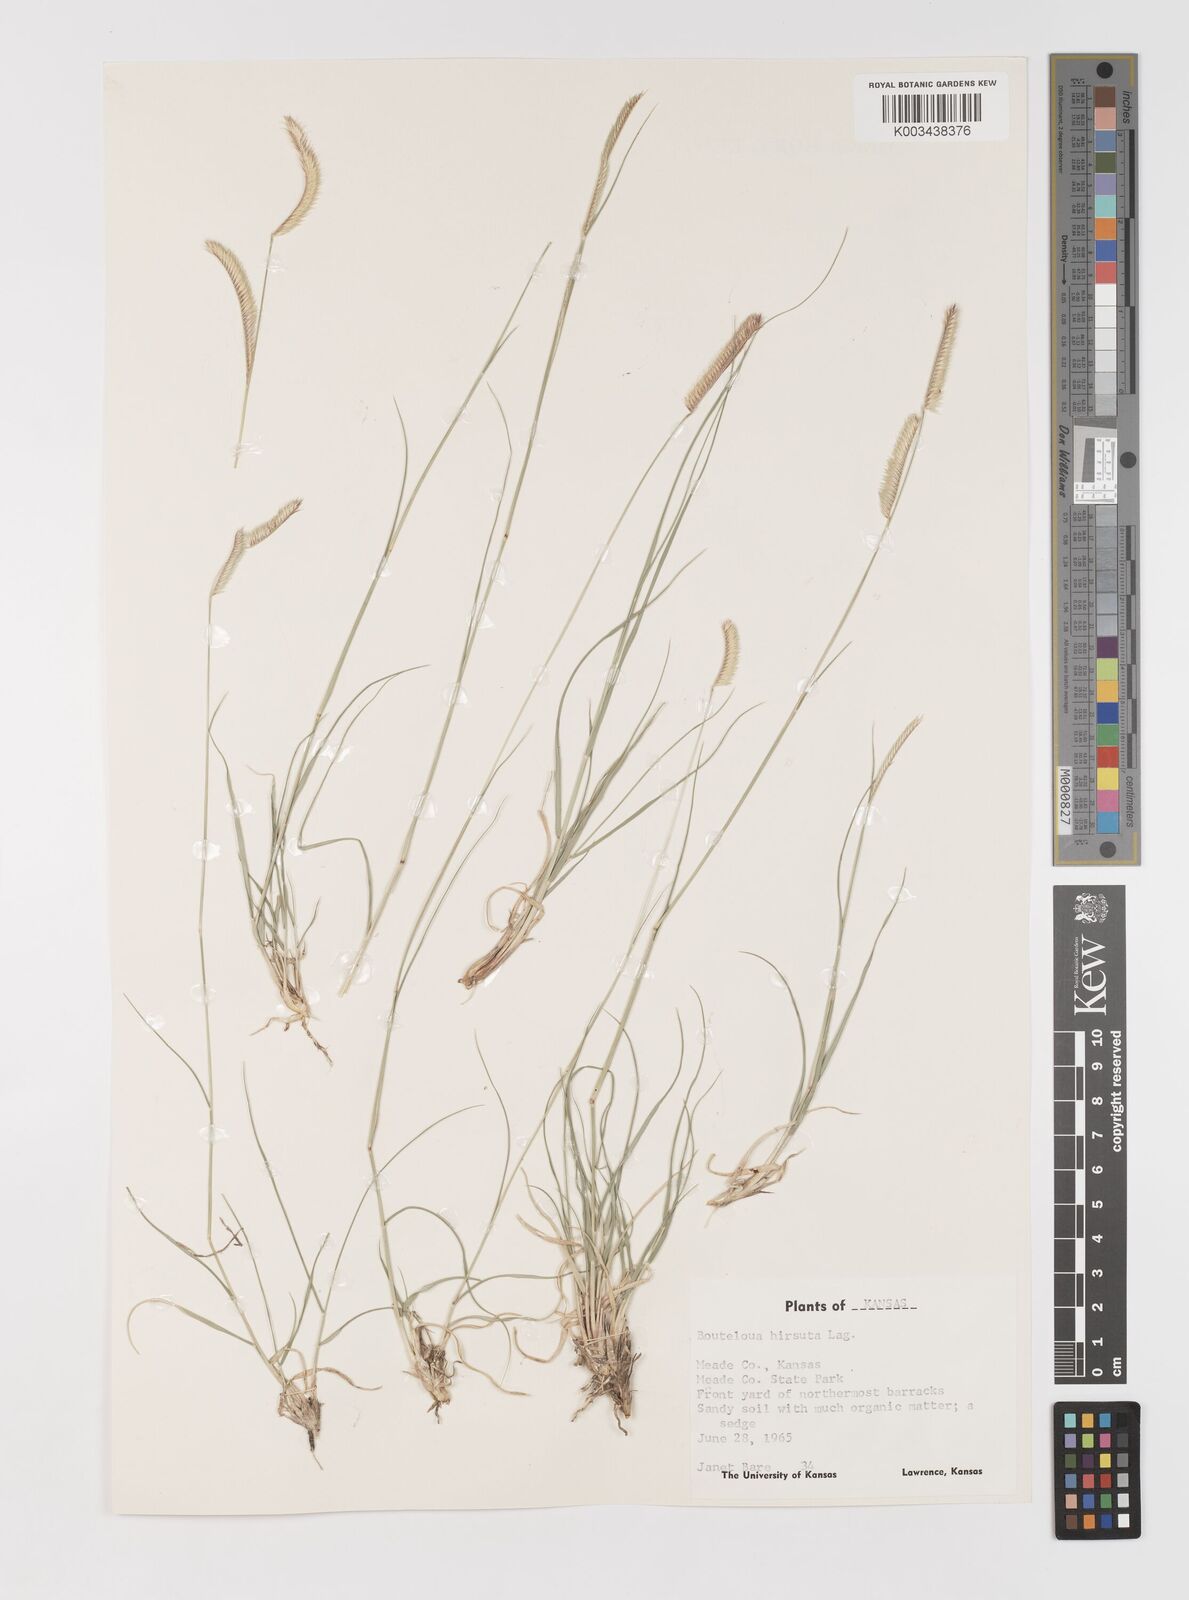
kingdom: Plantae
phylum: Tracheophyta
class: Liliopsida
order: Poales
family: Poaceae
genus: Bouteloua
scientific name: Bouteloua hirsuta
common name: Hairy grama
